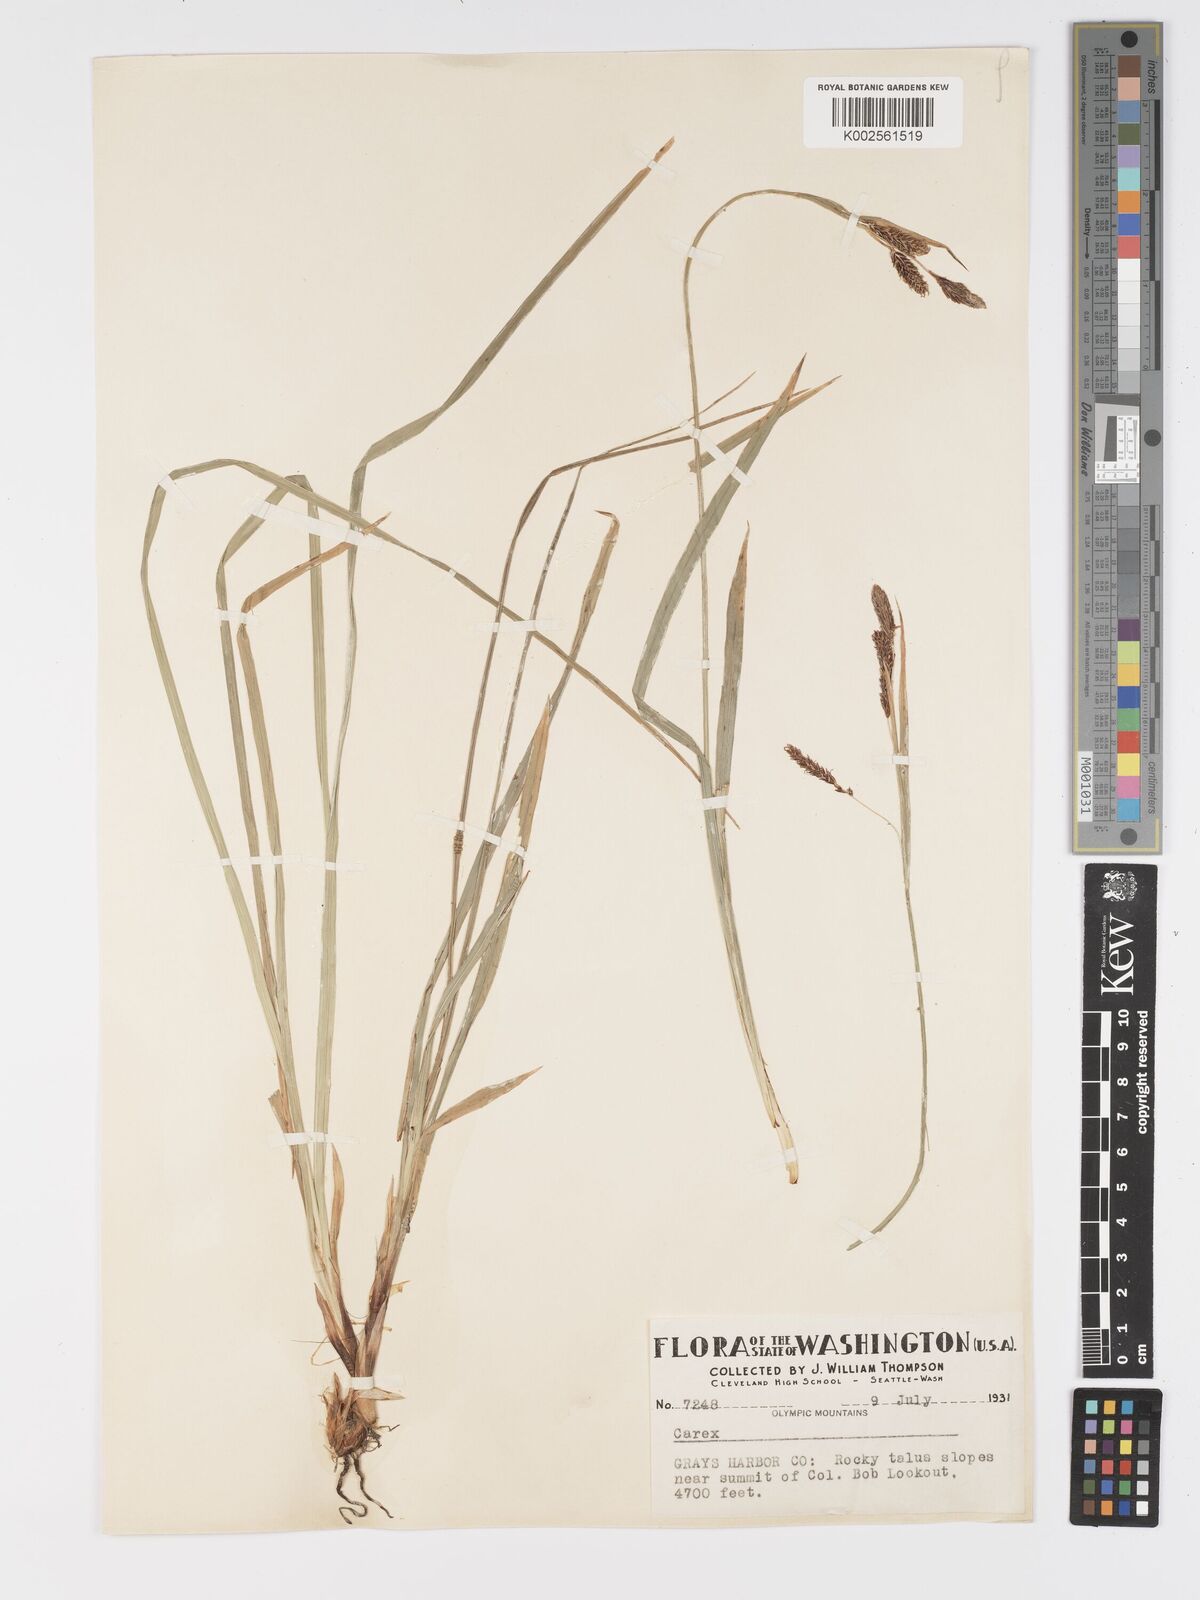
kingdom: Plantae
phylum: Tracheophyta
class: Liliopsida
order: Poales
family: Cyperaceae
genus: Carex
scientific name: Carex spectabilis
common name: Northwestern showy sedge
